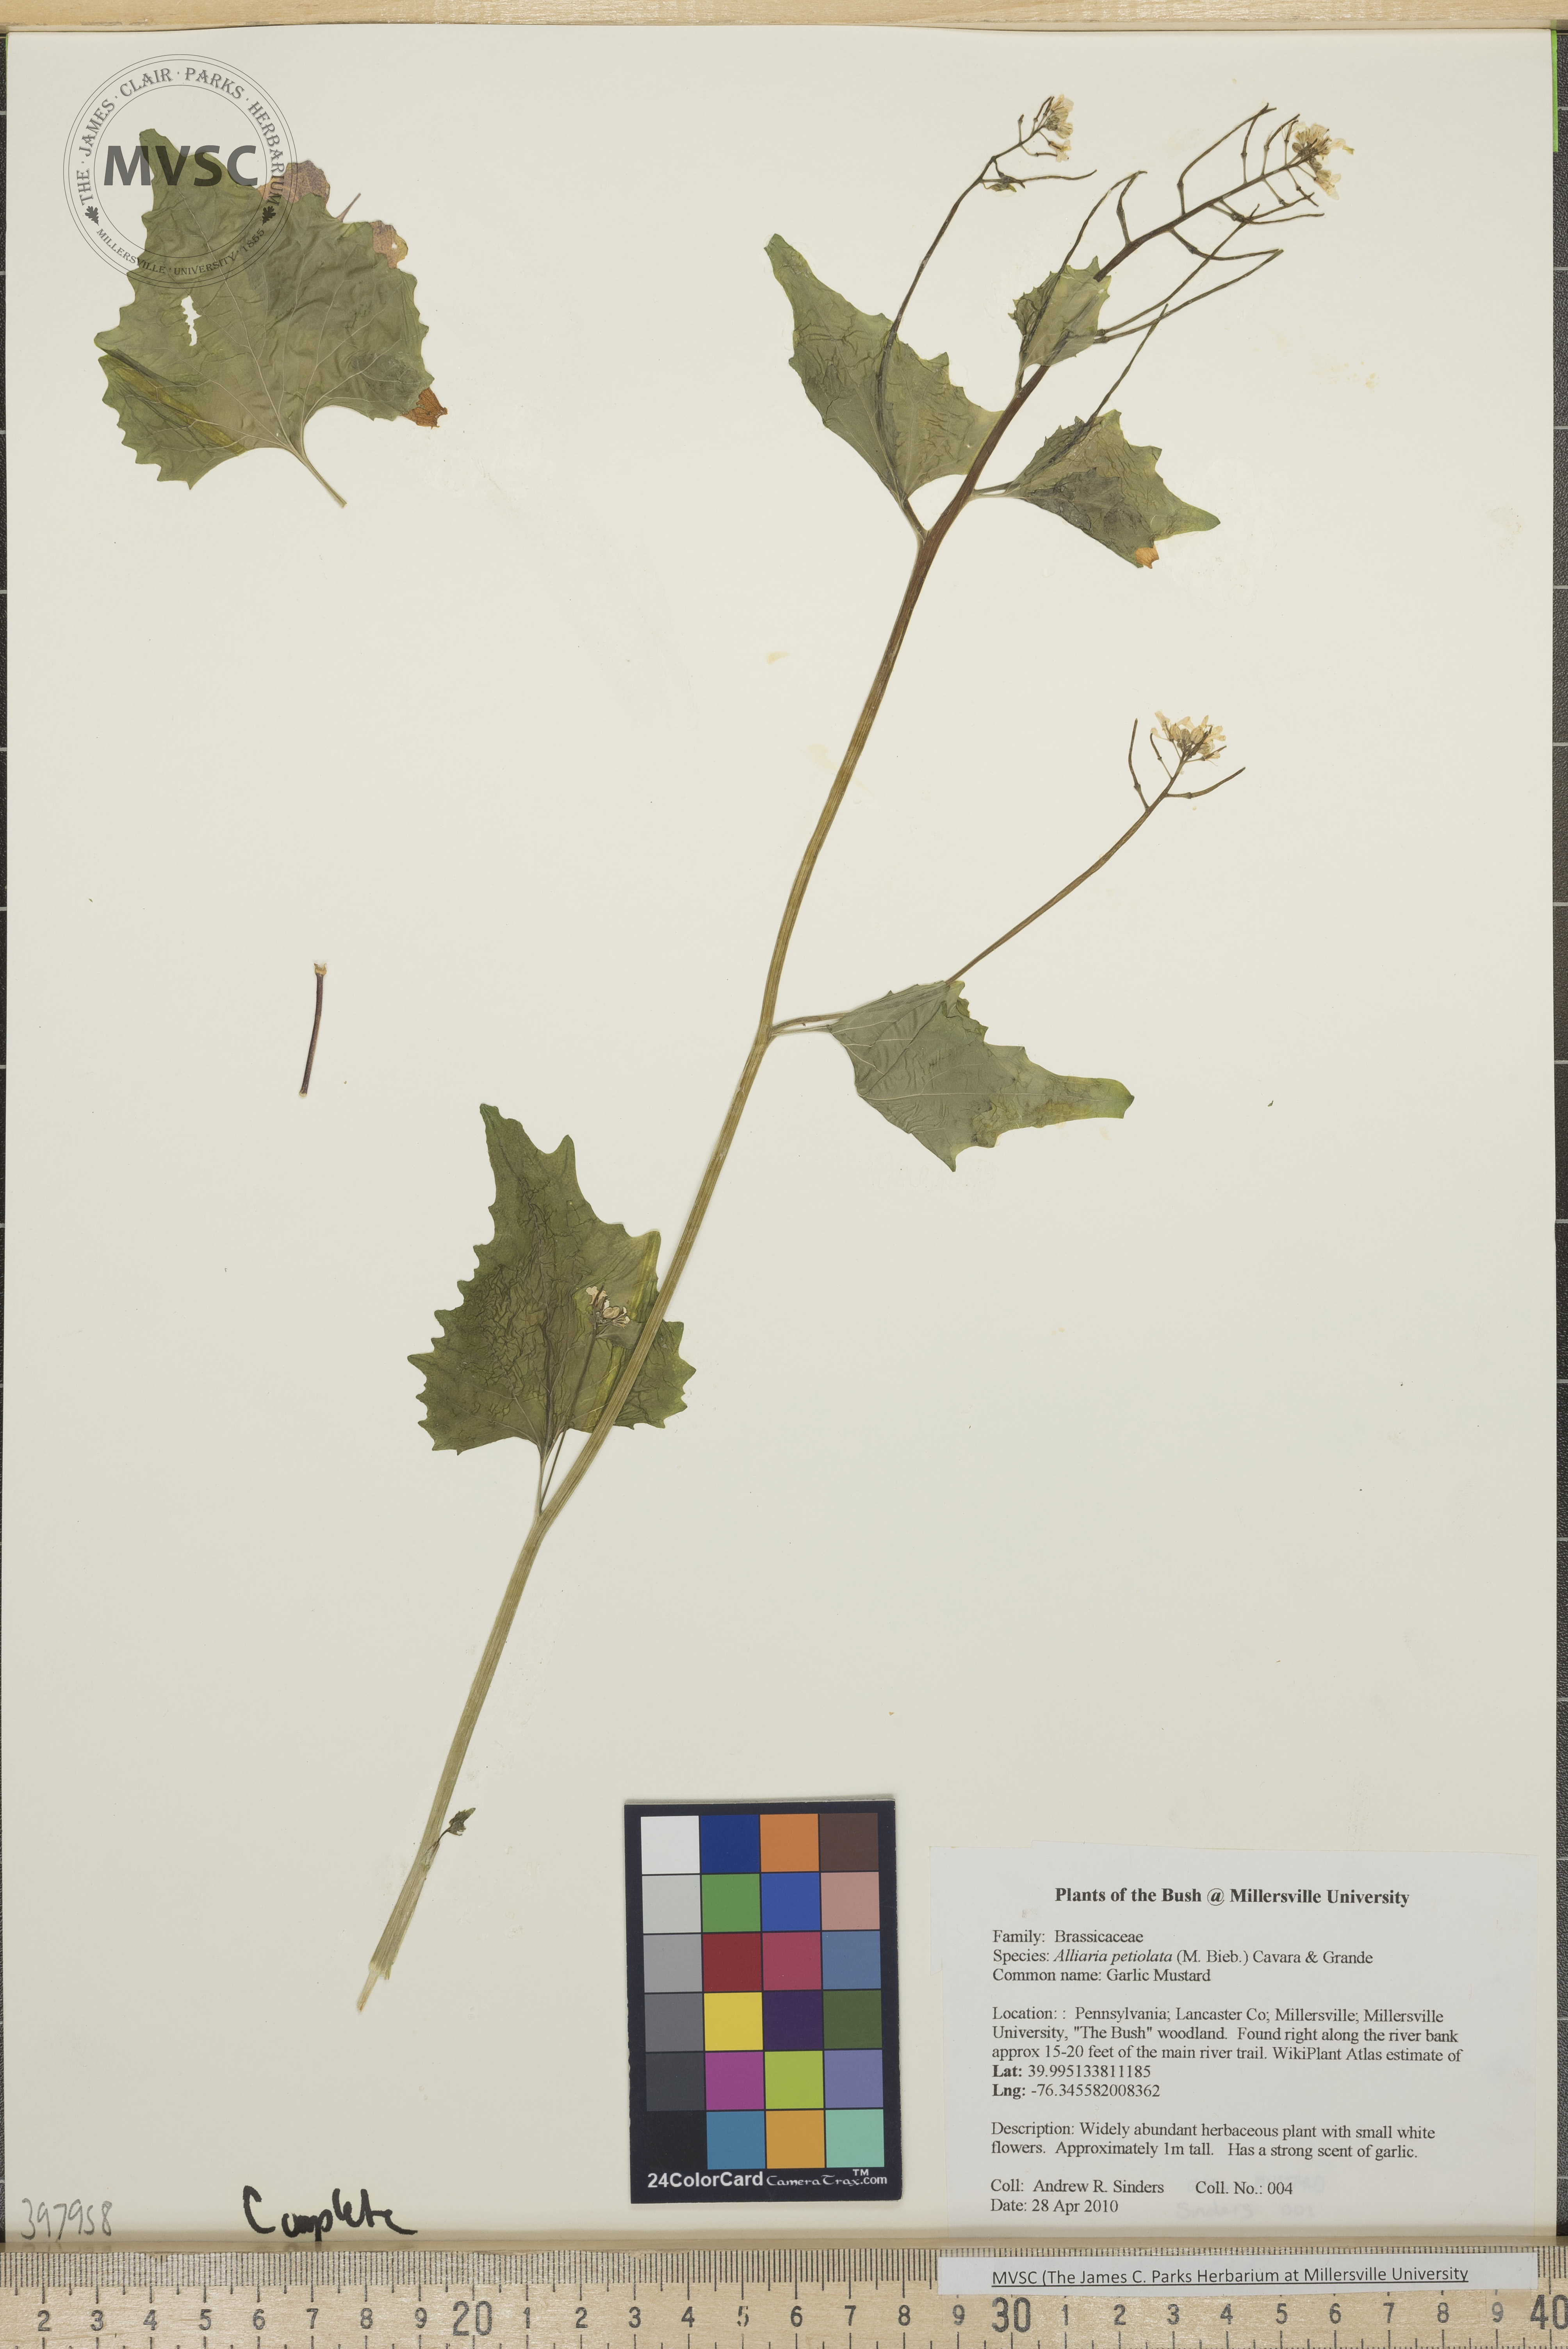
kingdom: Plantae
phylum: Tracheophyta
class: Magnoliopsida
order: Brassicales
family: Brassicaceae
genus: Alliaria
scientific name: Alliaria petiolata
